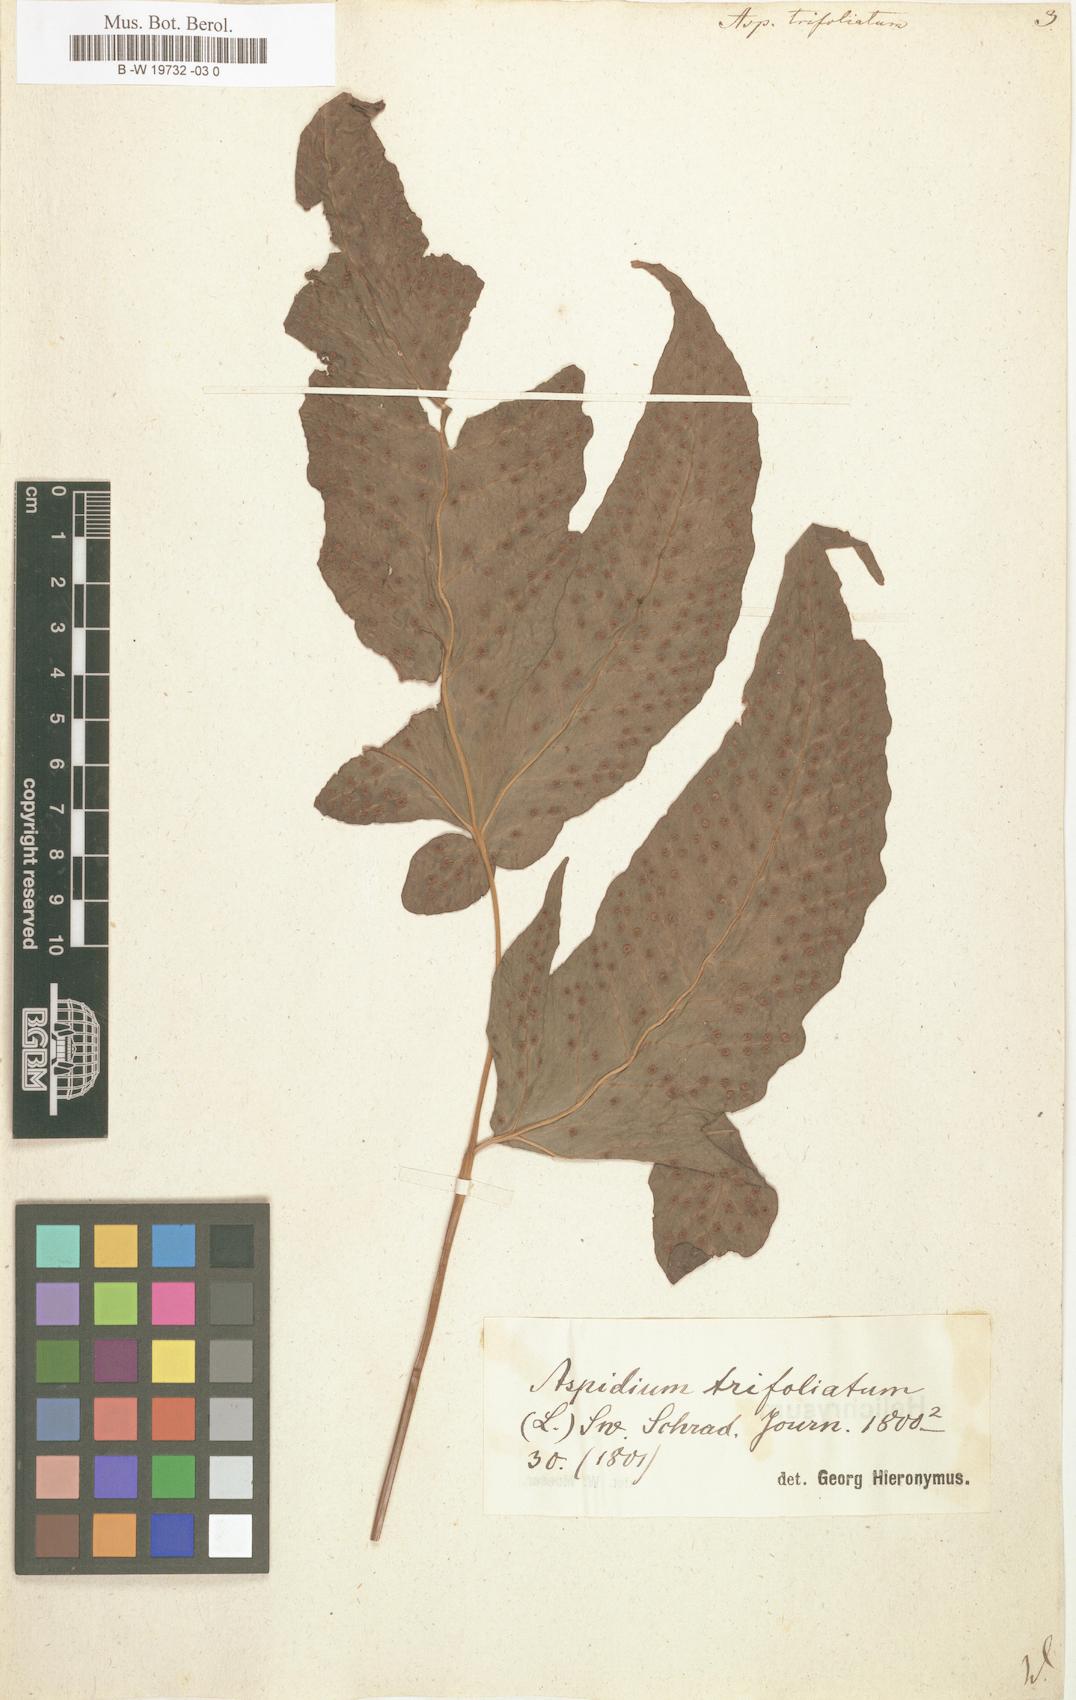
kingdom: Plantae
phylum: Tracheophyta
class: Polypodiopsida
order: Polypodiales
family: Tectariaceae
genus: Tectaria
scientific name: Tectaria
